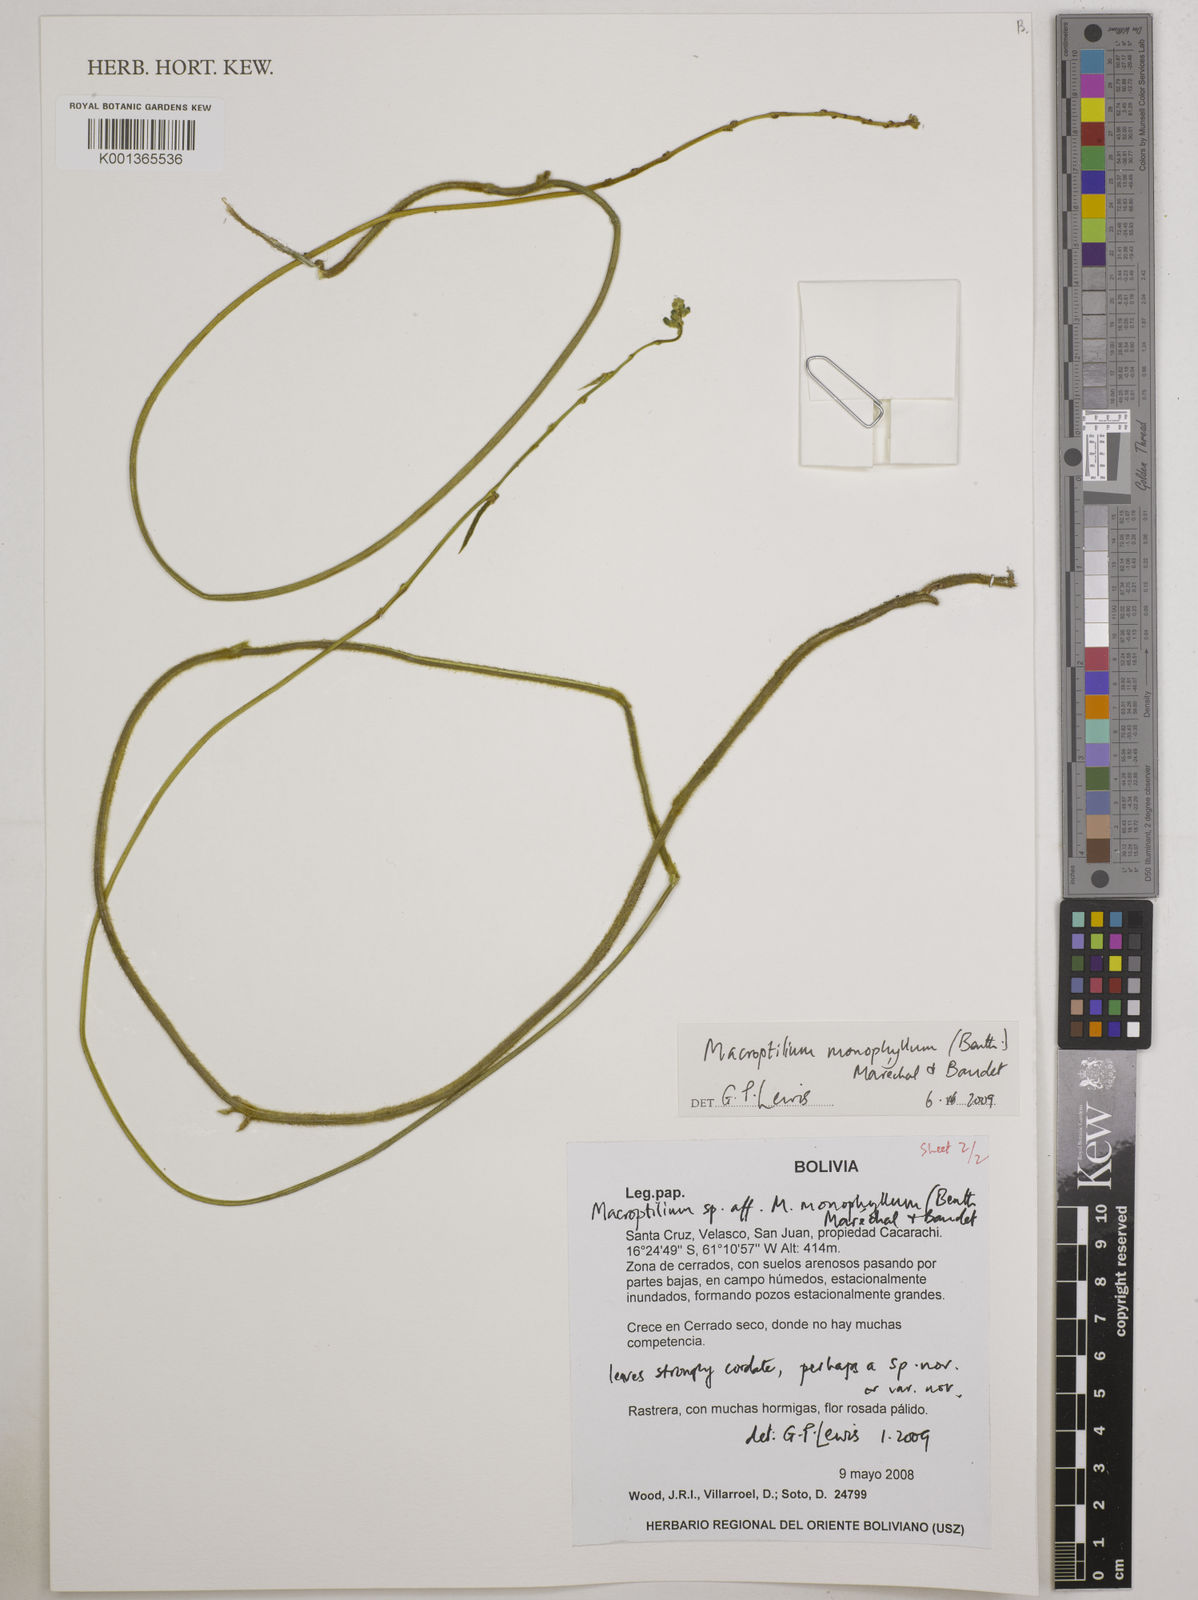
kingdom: Plantae
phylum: Tracheophyta
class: Magnoliopsida
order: Fabales
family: Fabaceae
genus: Macroptilium
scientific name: Macroptilium monophyllum
